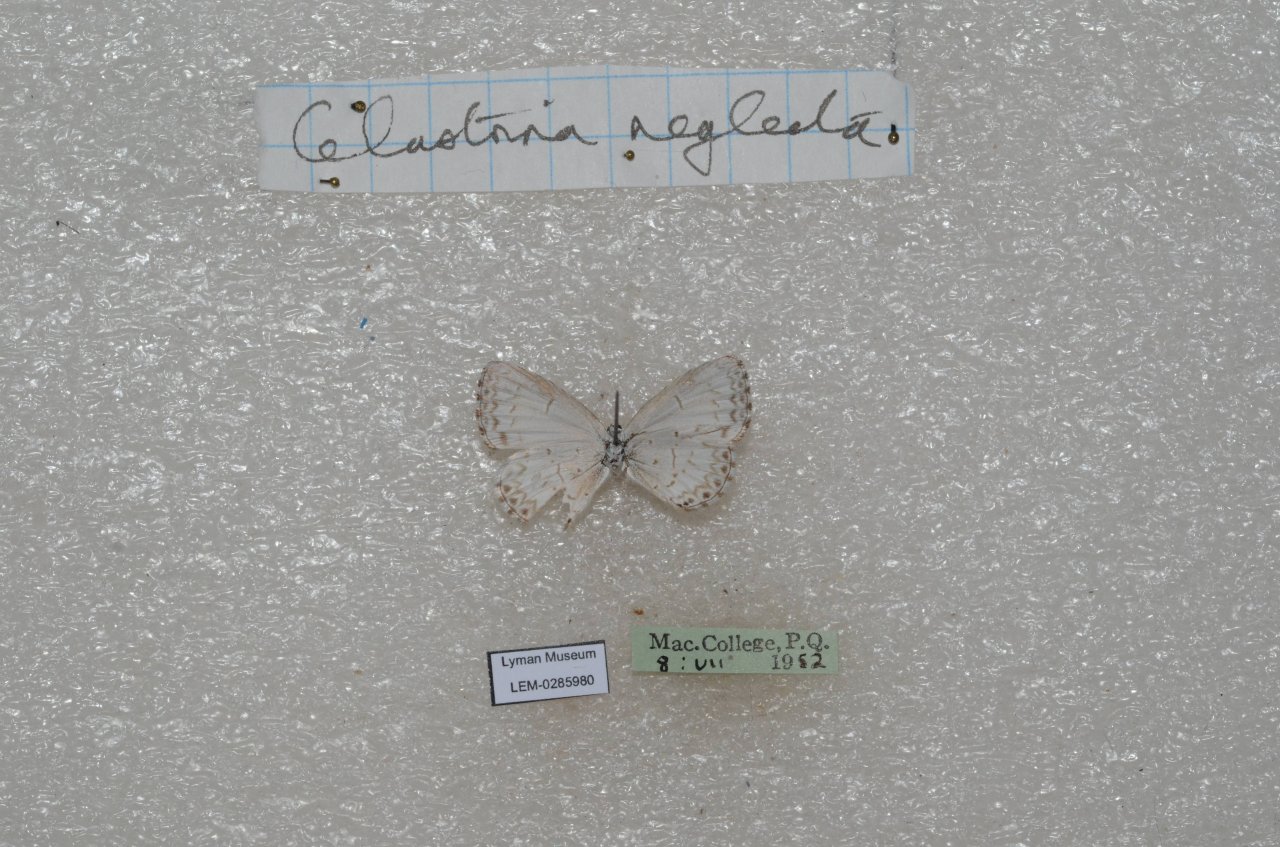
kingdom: Animalia
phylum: Arthropoda
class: Insecta
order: Lepidoptera
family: Lycaenidae
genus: Celastrina
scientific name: Celastrina lucia
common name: Northern Spring Azure
